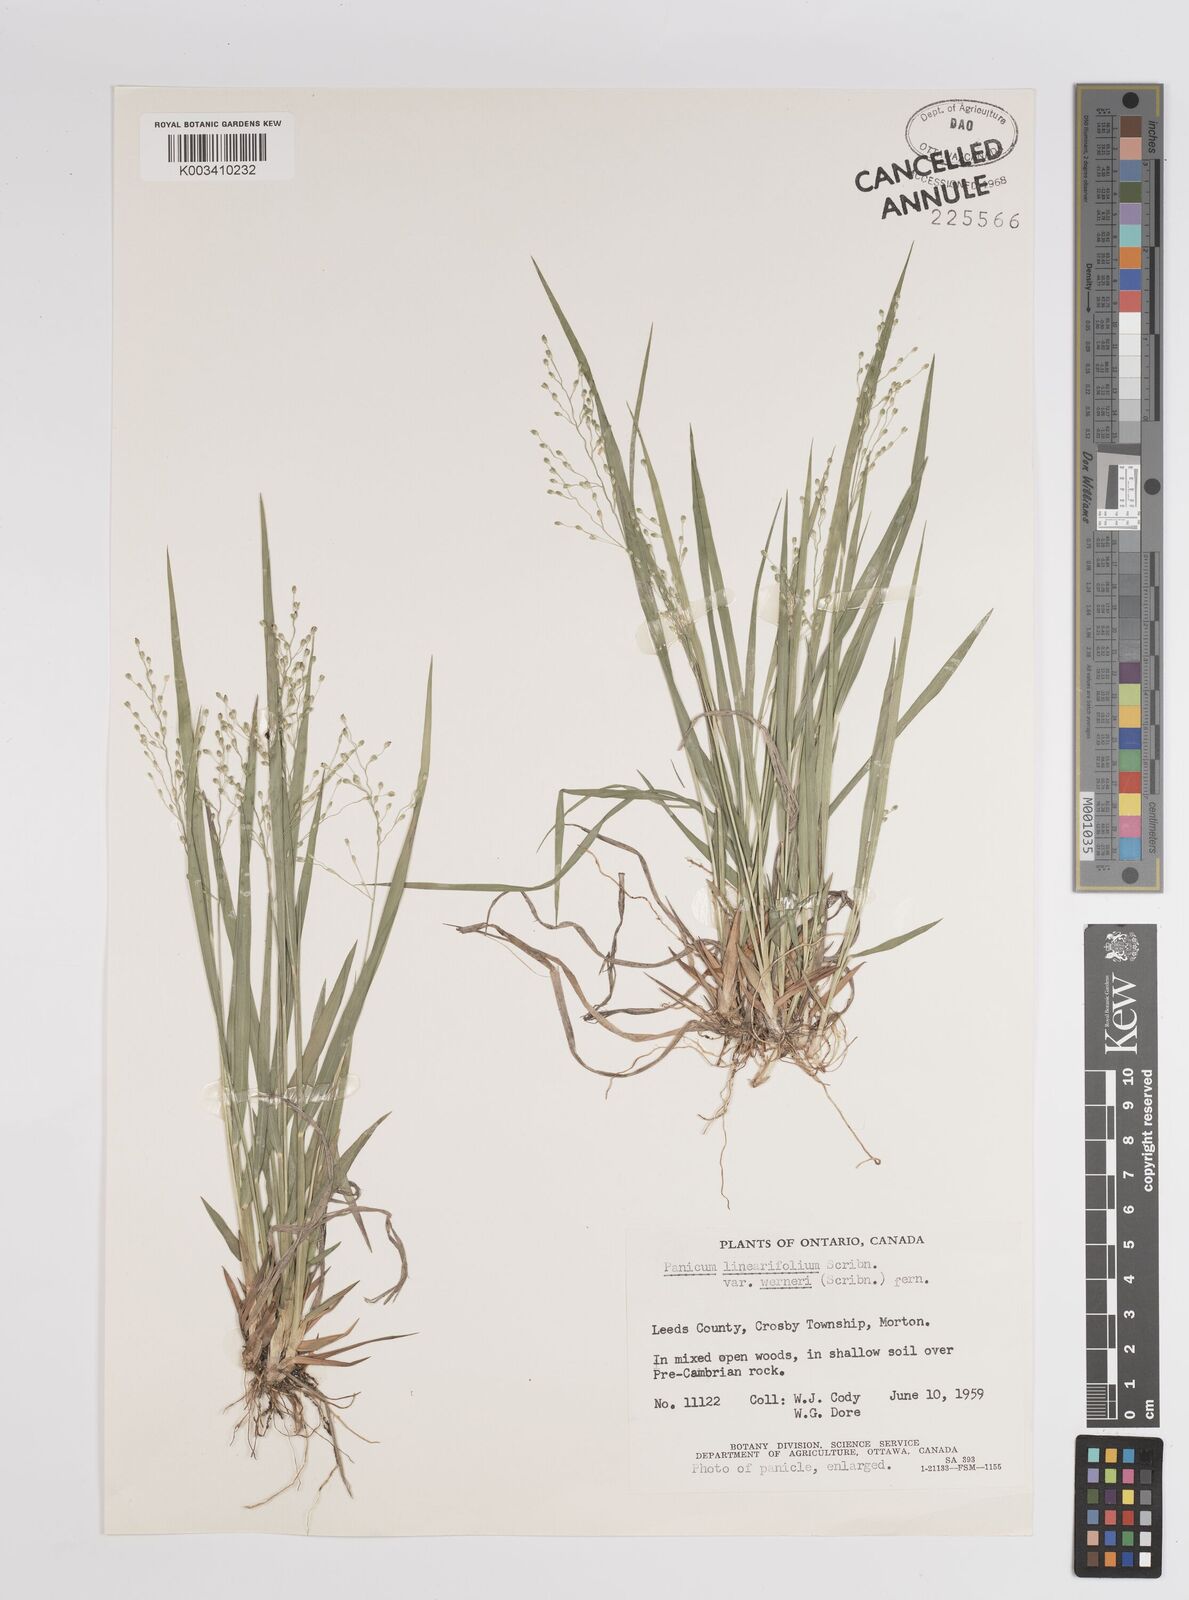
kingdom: Plantae
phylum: Tracheophyta
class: Liliopsida
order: Poales
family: Poaceae
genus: Dichanthelium
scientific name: Dichanthelium linearifolium
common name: Linear-leaved panicgrass
